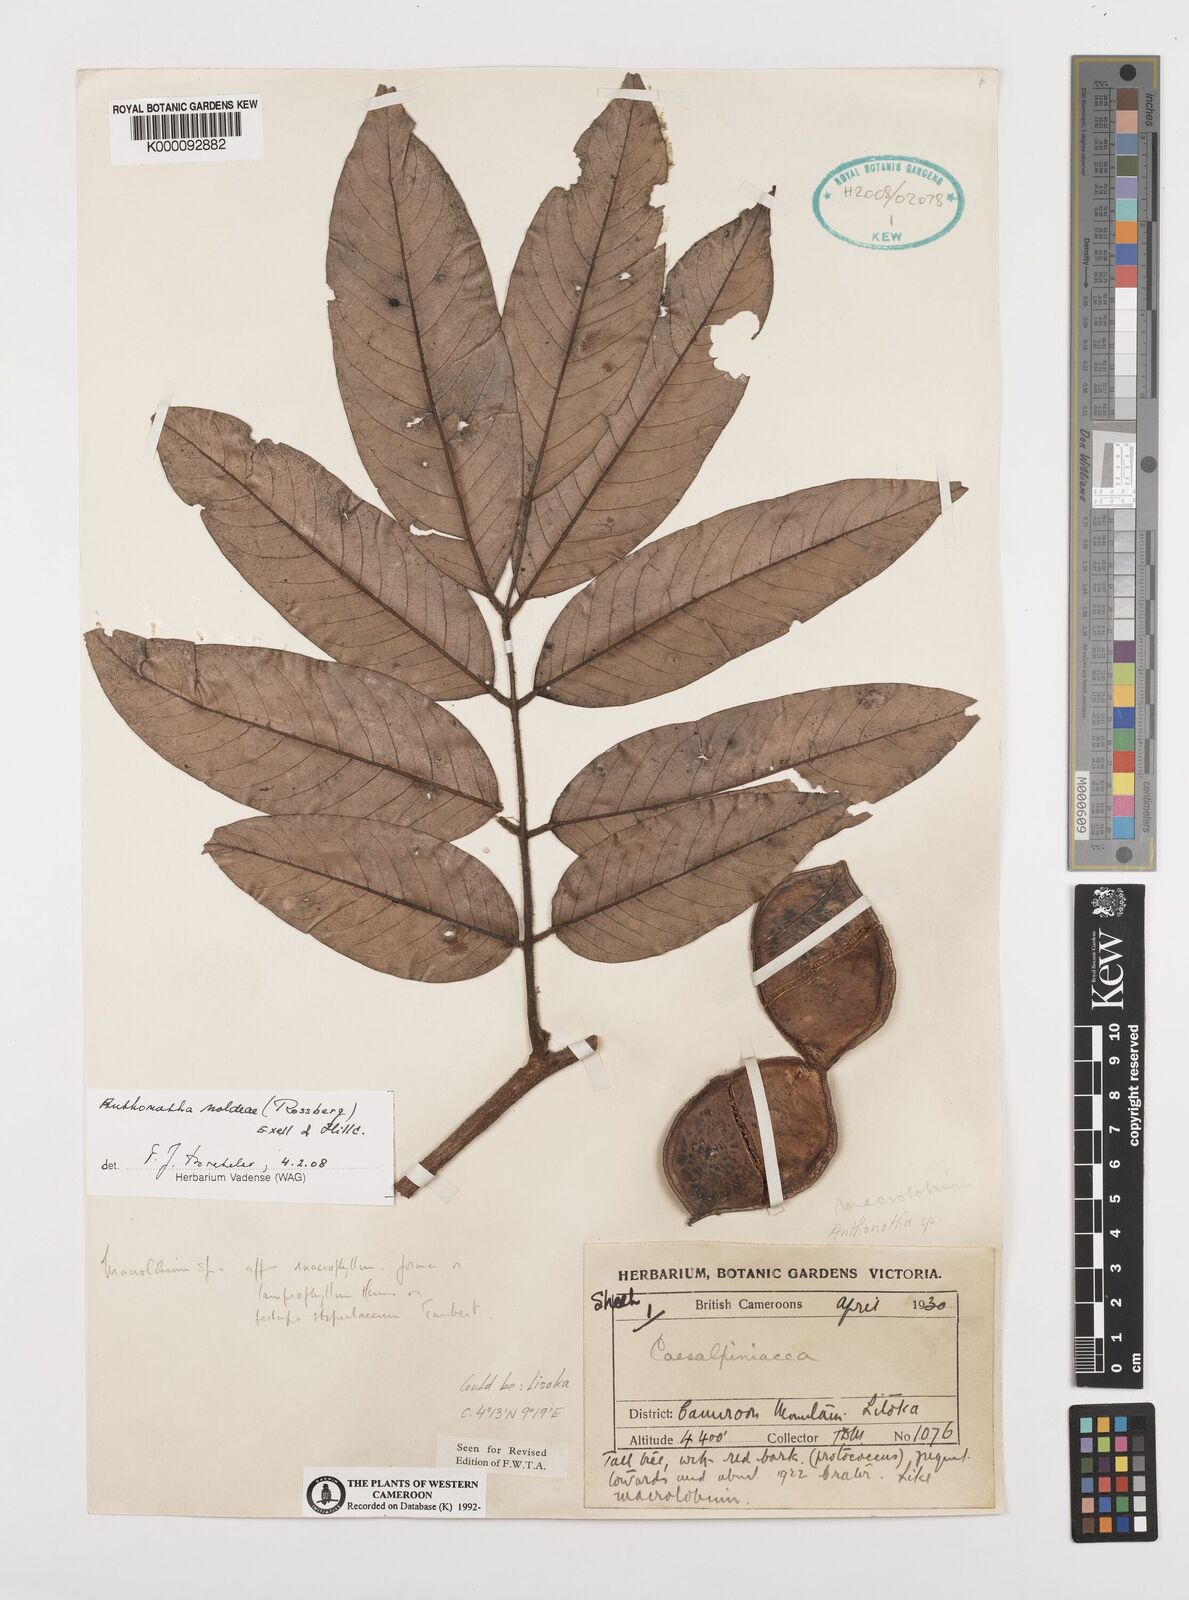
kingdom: Plantae
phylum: Tracheophyta
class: Magnoliopsida
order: Fabales
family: Fabaceae
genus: Anthonotha
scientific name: Anthonotha
